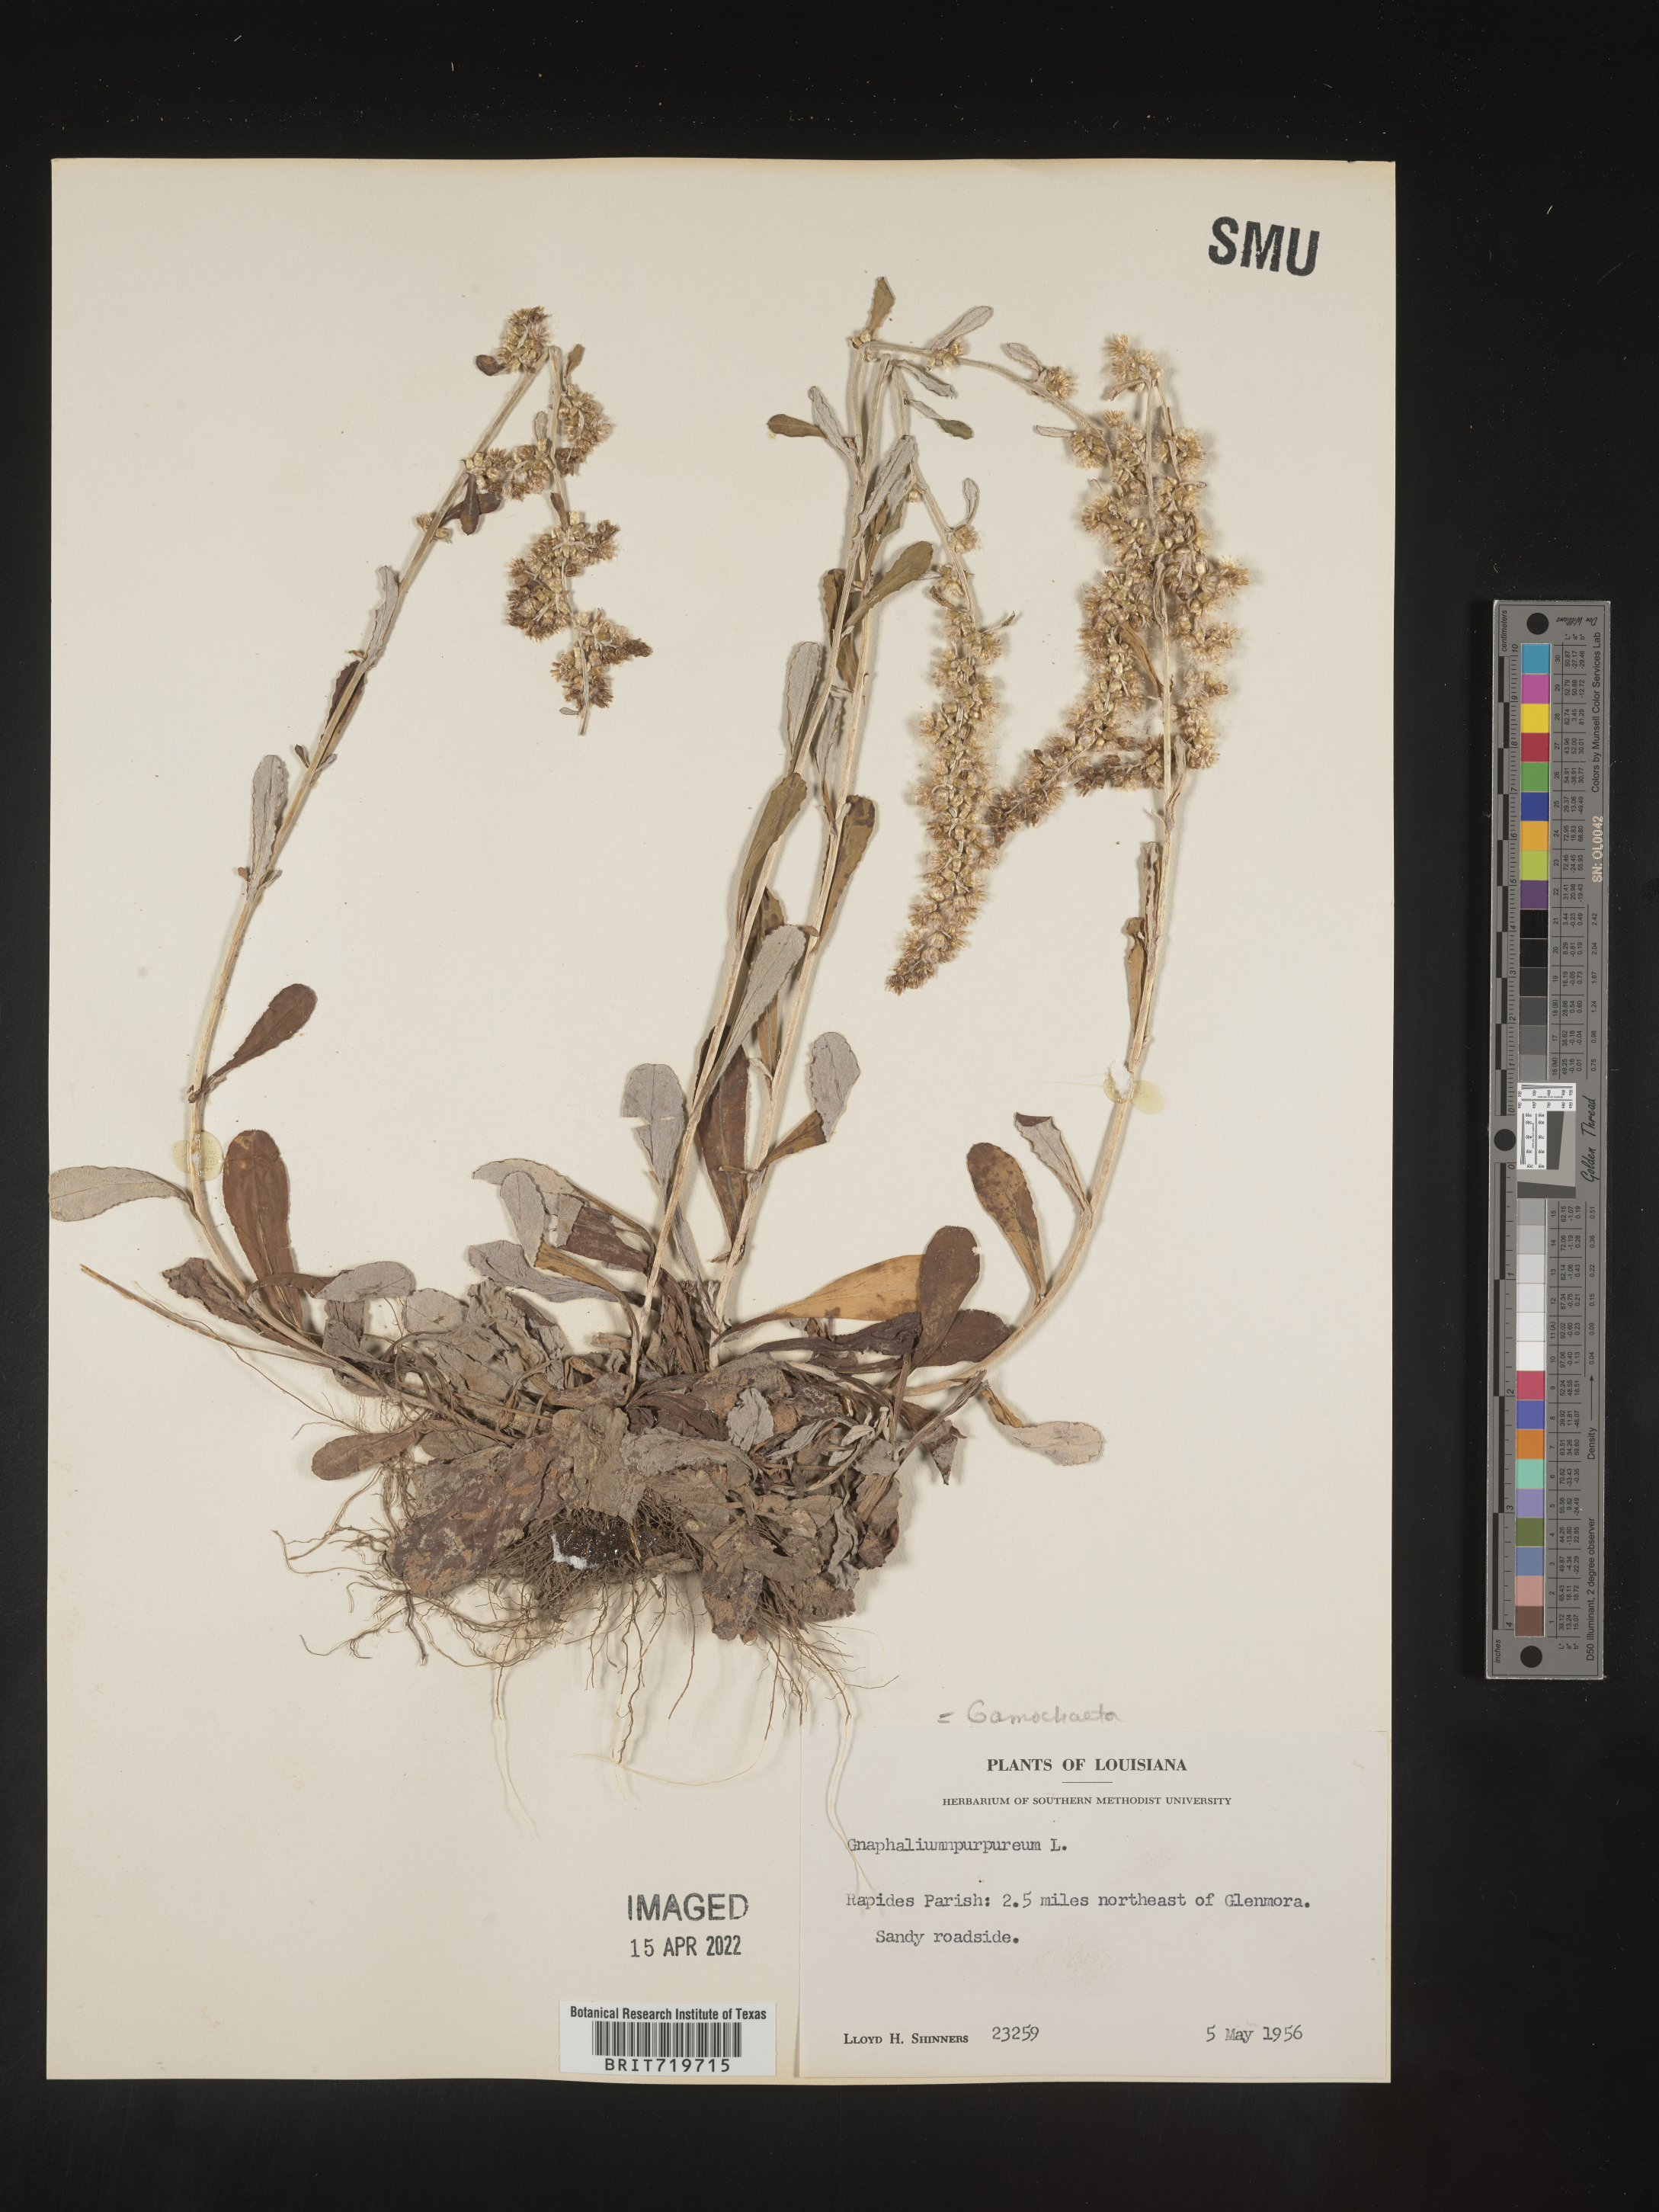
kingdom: Plantae
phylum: Tracheophyta
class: Magnoliopsida
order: Asterales
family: Asteraceae
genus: Gamochaeta
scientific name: Gamochaeta americana
